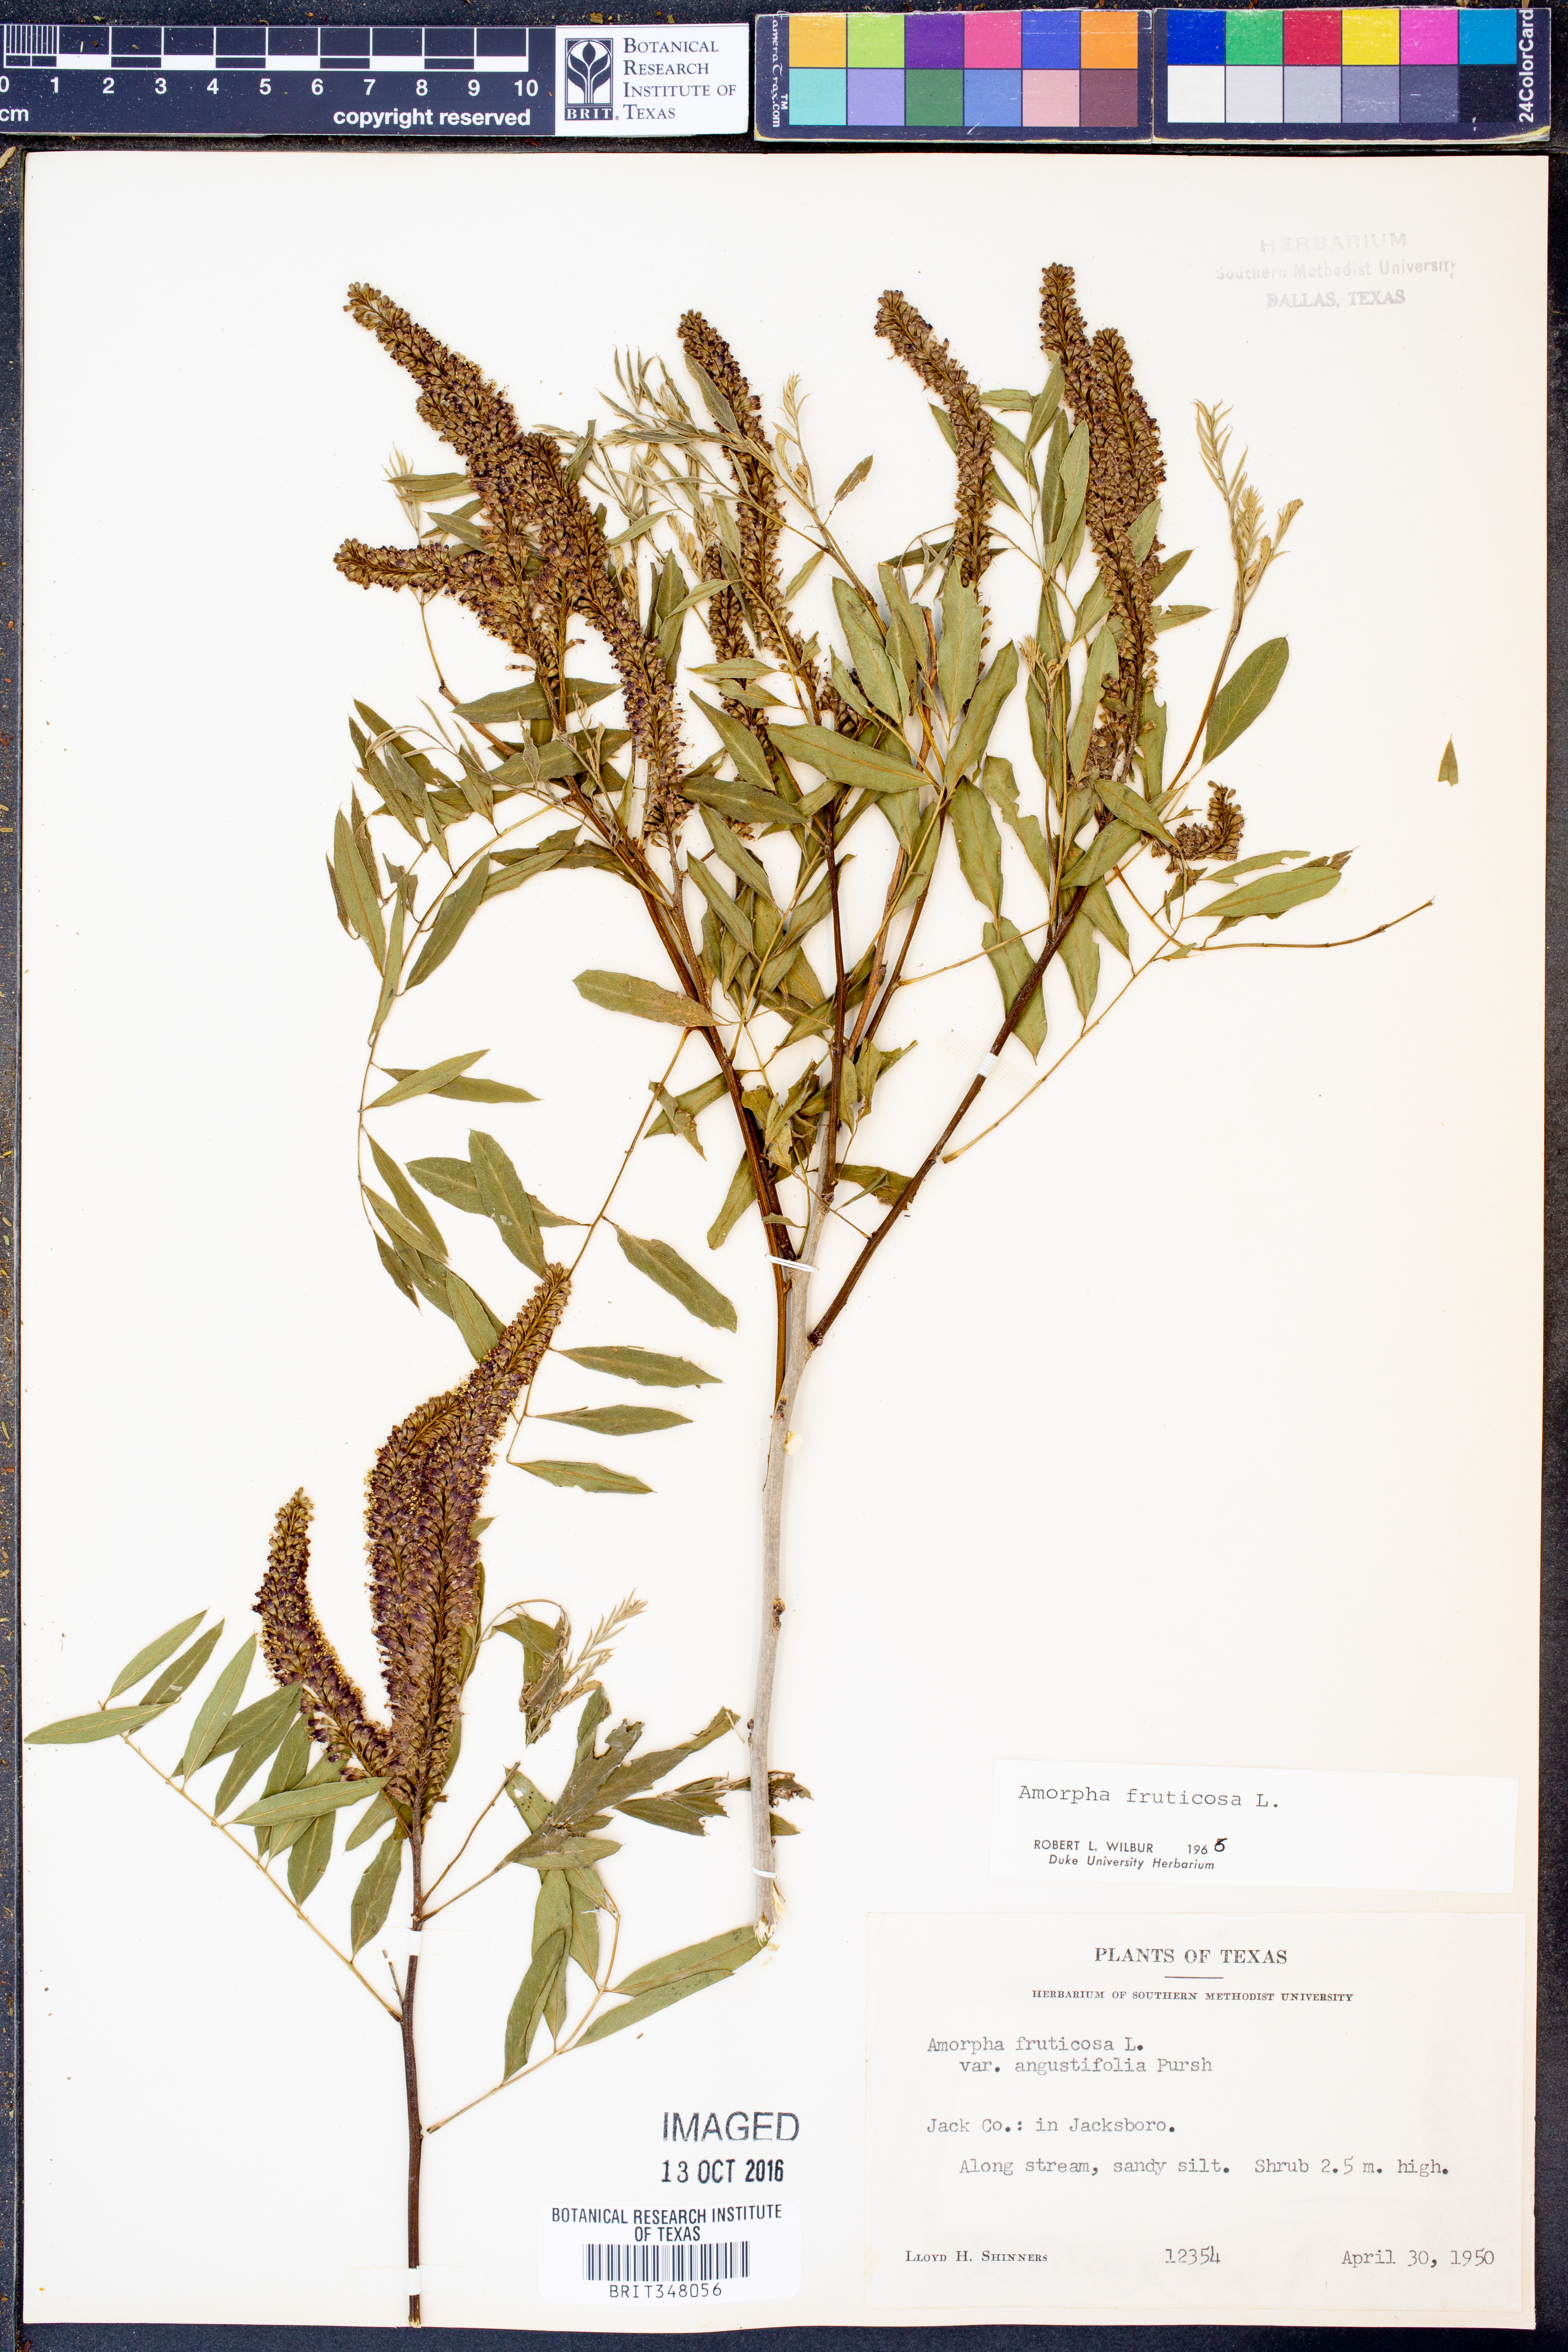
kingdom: Plantae
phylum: Tracheophyta
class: Magnoliopsida
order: Fabales
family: Fabaceae
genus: Amorpha
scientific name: Amorpha fruticosa
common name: False indigo
